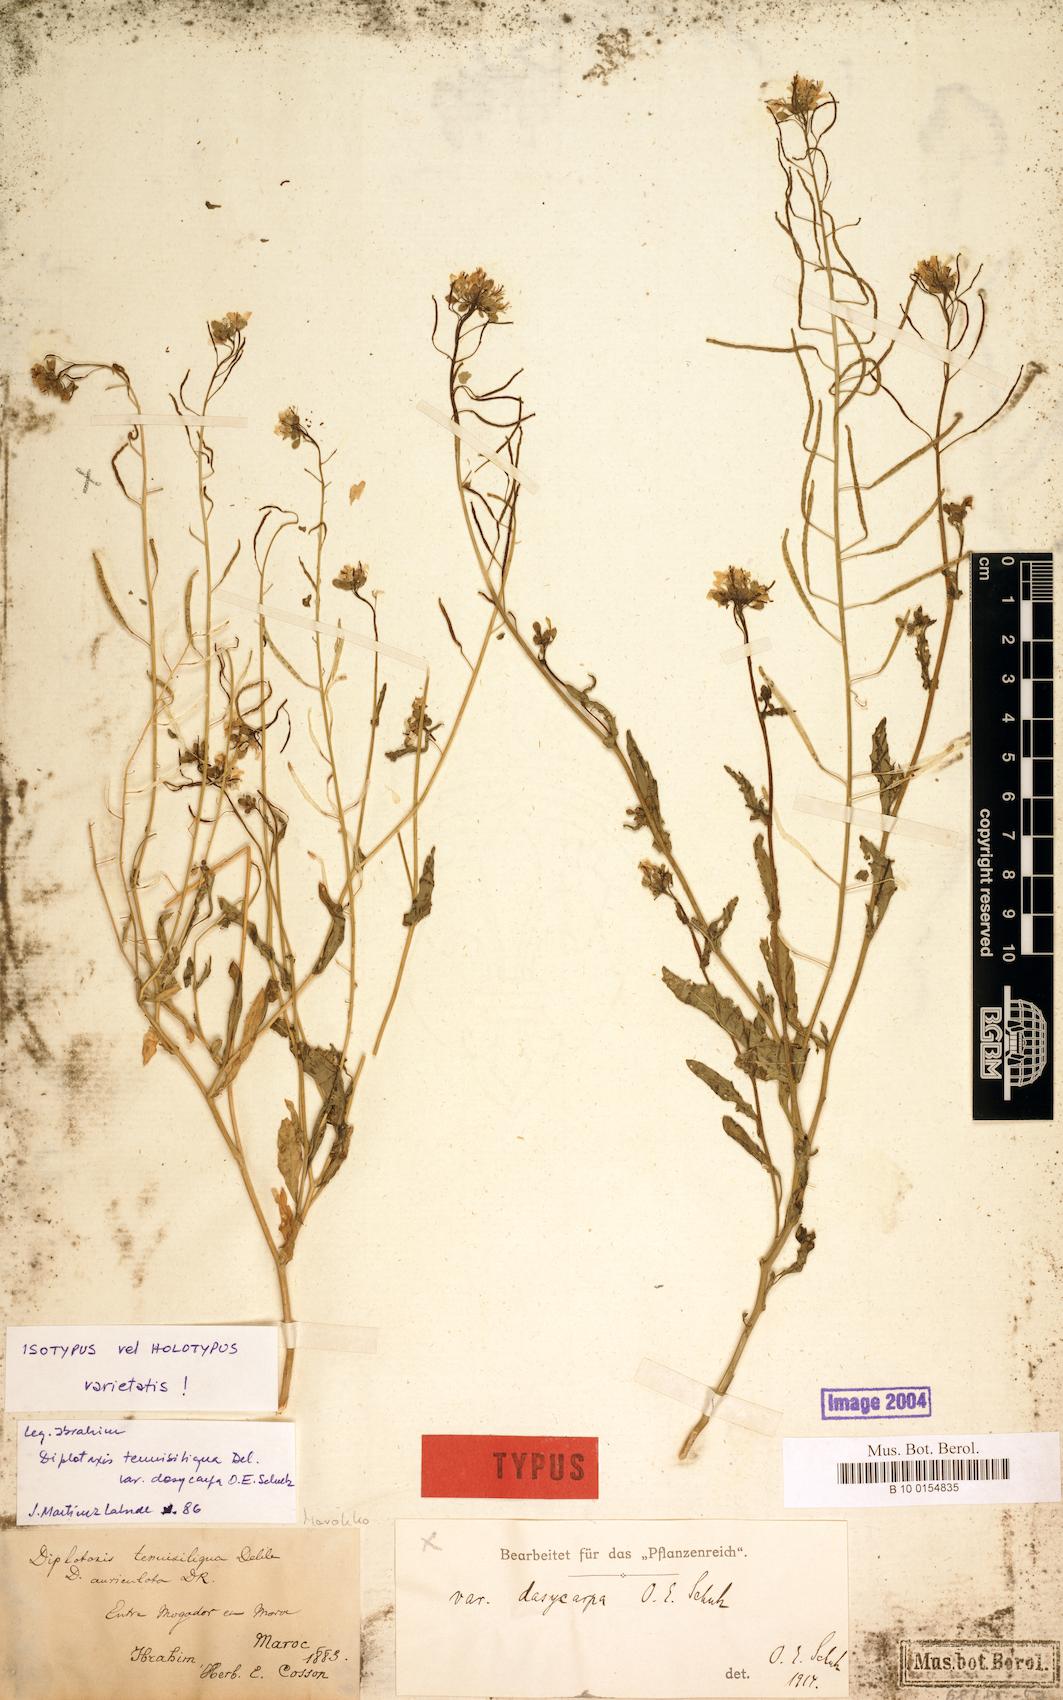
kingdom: Plantae
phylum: Tracheophyta
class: Magnoliopsida
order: Brassicales
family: Brassicaceae
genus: Diplotaxis
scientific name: Diplotaxis tenuisiliqua
